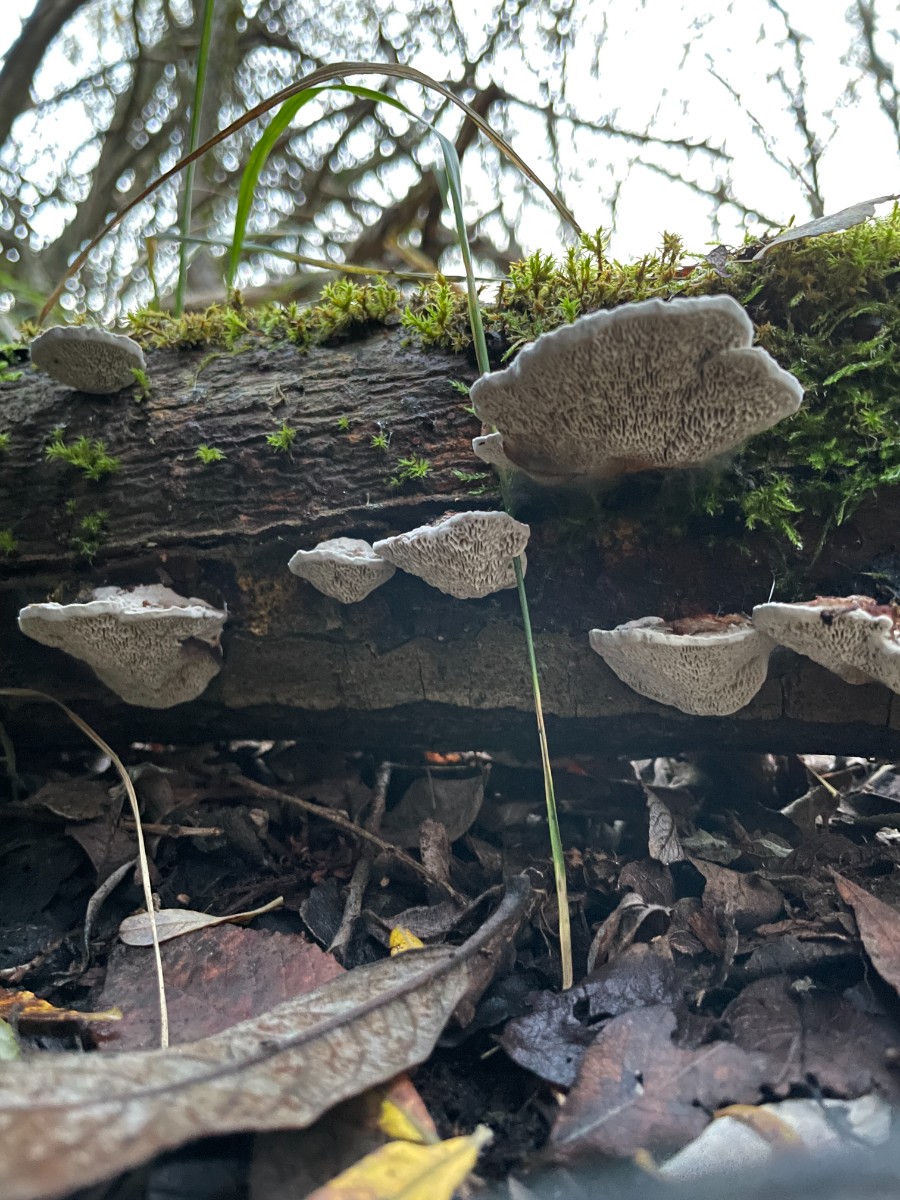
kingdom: Fungi
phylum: Basidiomycota
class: Agaricomycetes
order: Polyporales
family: Polyporaceae
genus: Daedaleopsis
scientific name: Daedaleopsis confragosa
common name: rødmende læderporesvamp
